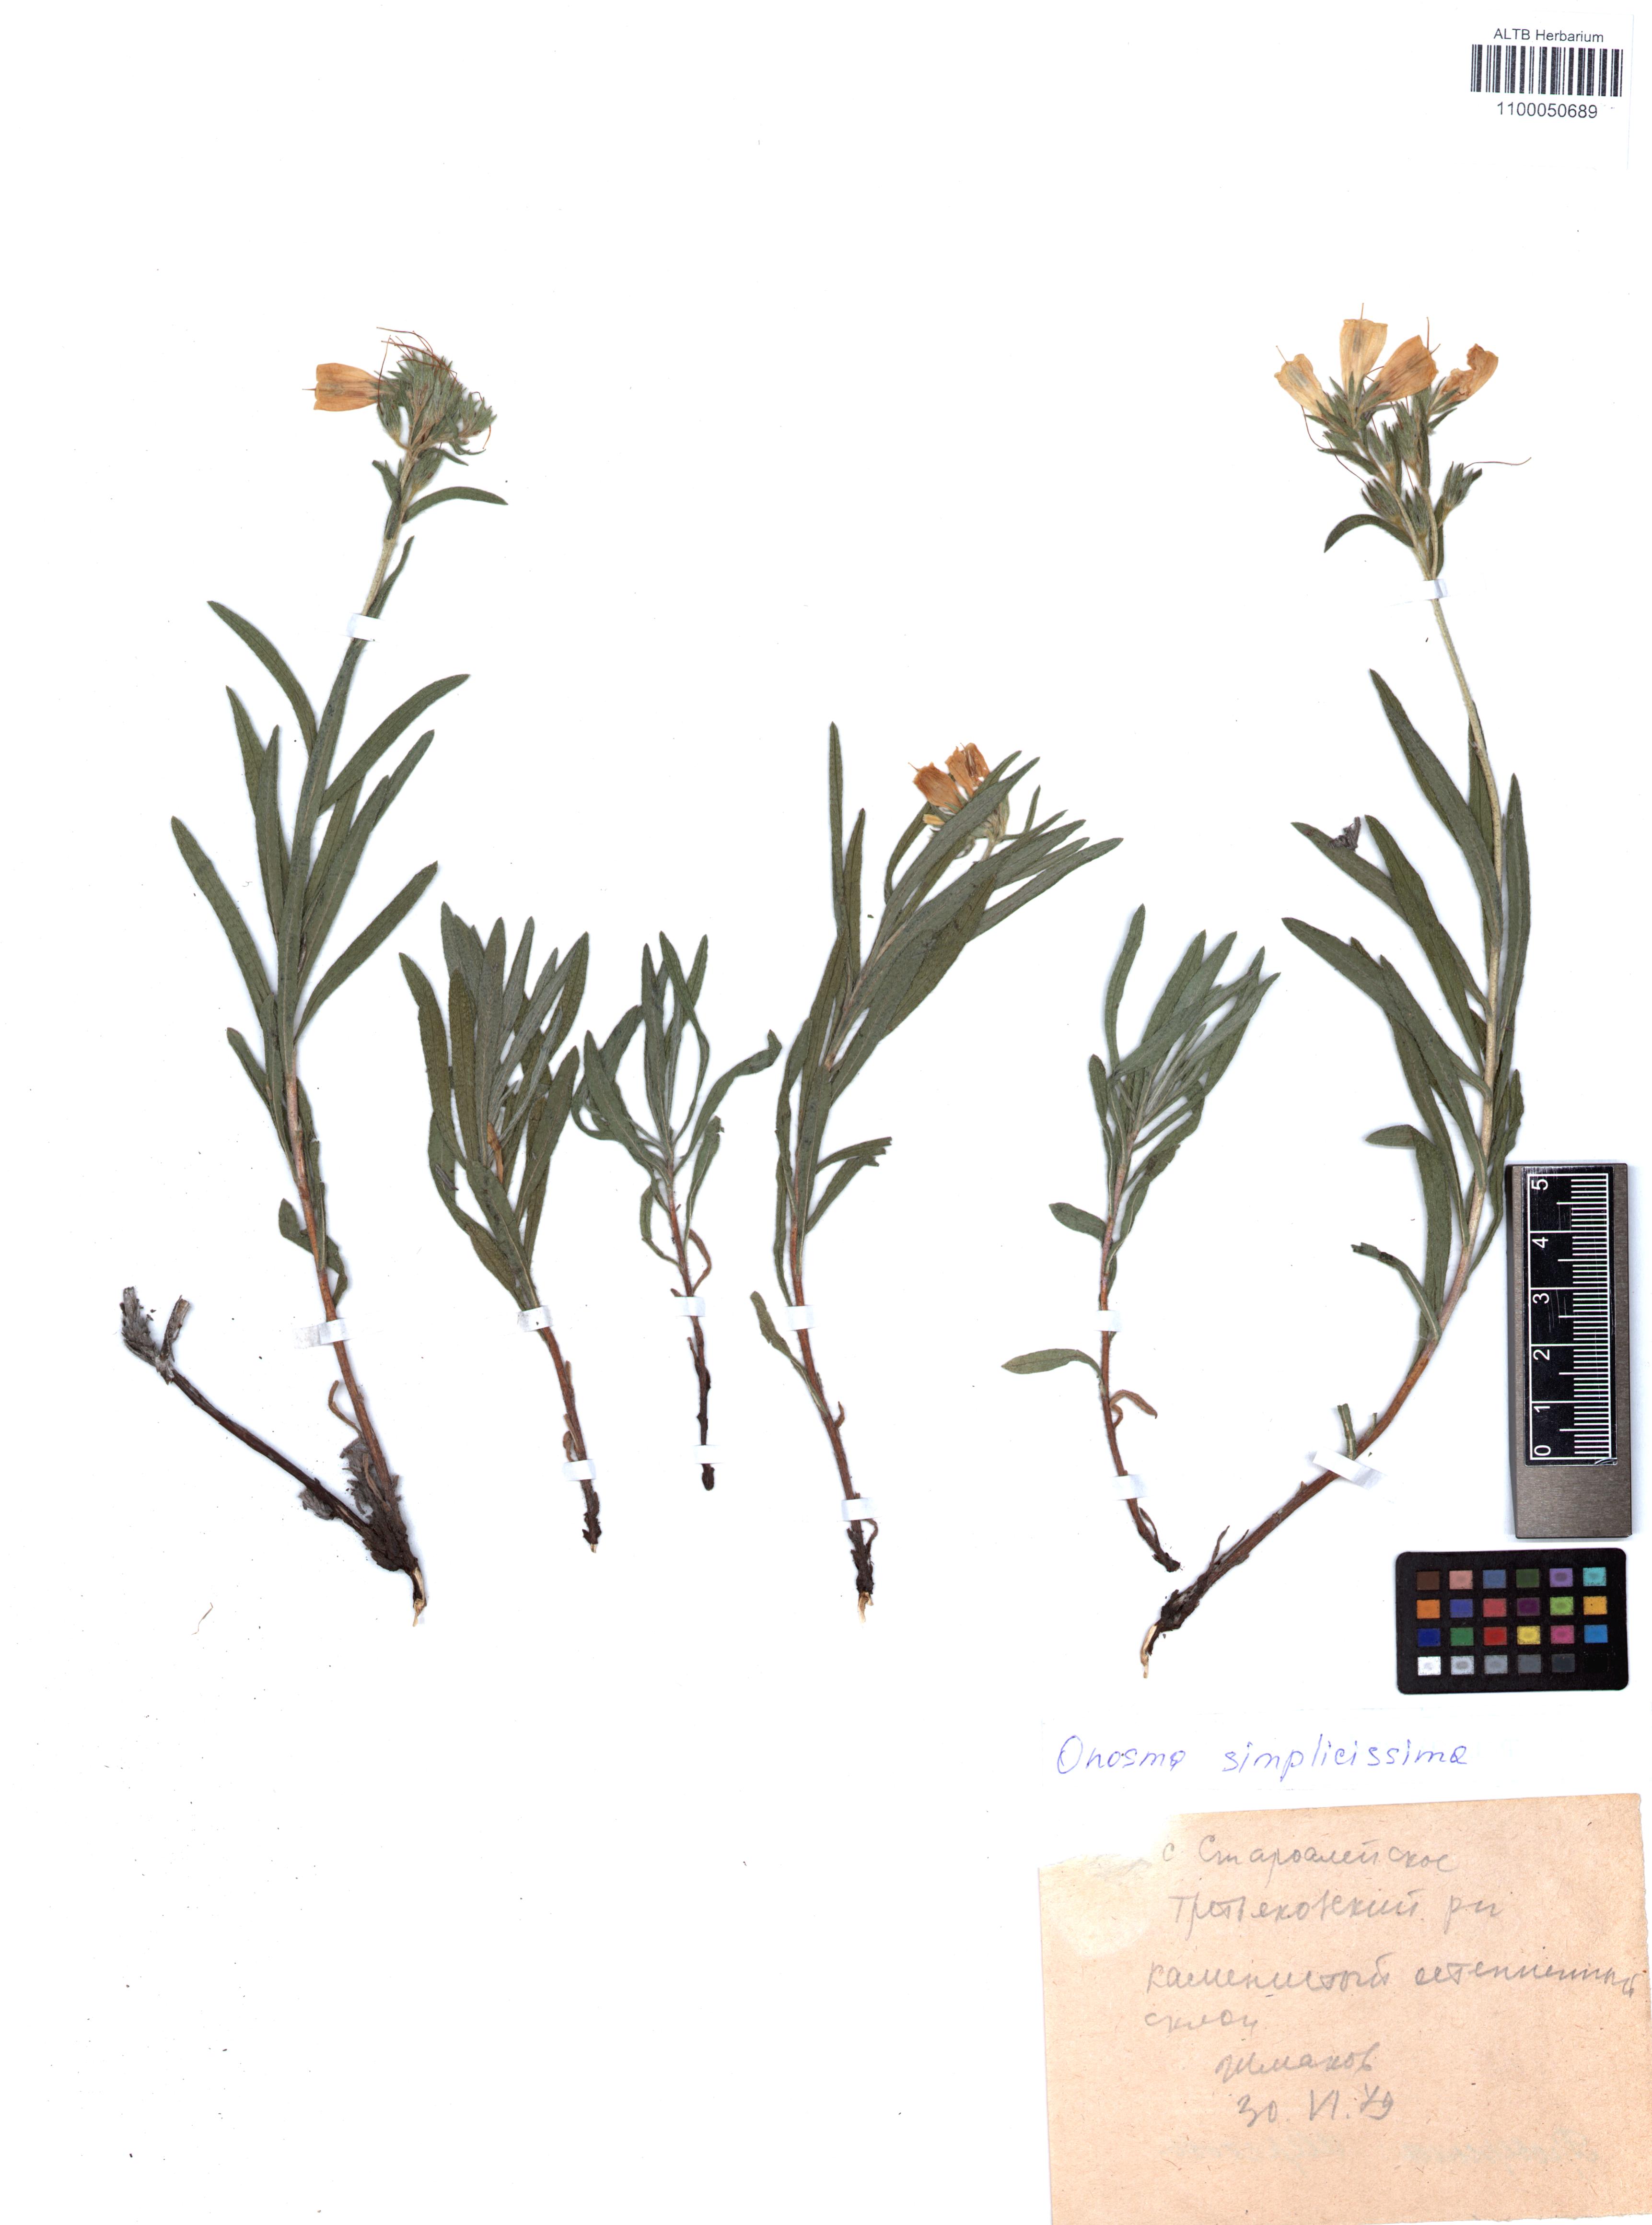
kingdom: Plantae
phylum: Tracheophyta
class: Magnoliopsida
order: Boraginales
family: Boraginaceae
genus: Onosma
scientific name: Onosma simplicissima
